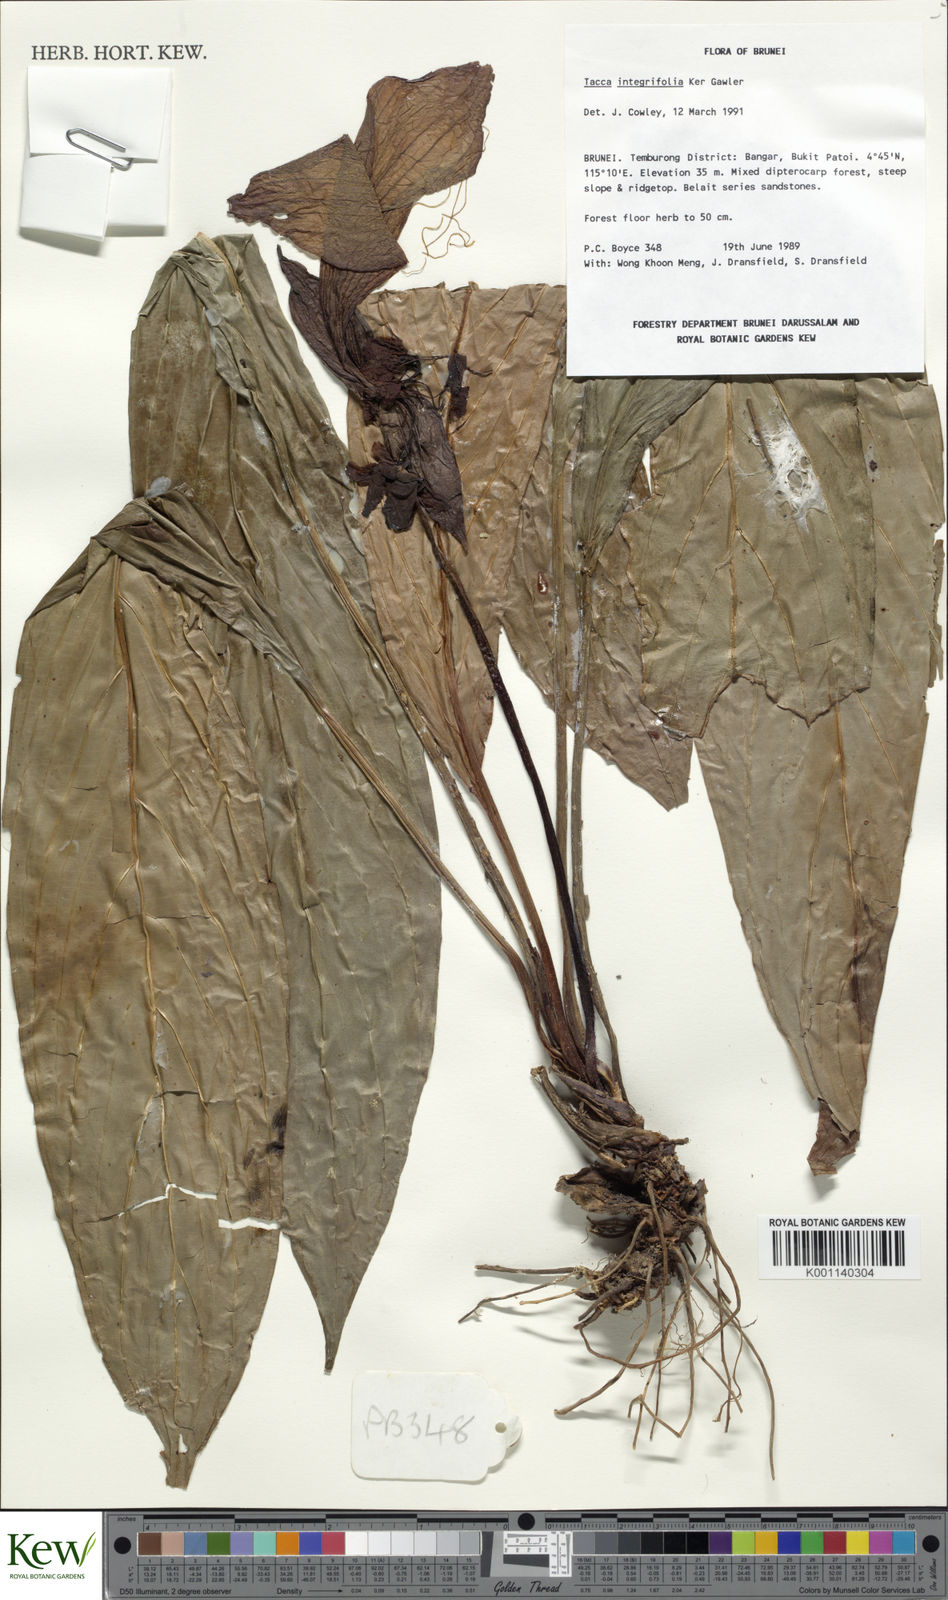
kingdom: Plantae
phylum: Tracheophyta
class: Liliopsida
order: Dioscoreales
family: Dioscoreaceae
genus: Tacca
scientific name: Tacca integrifolia
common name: Batplant
